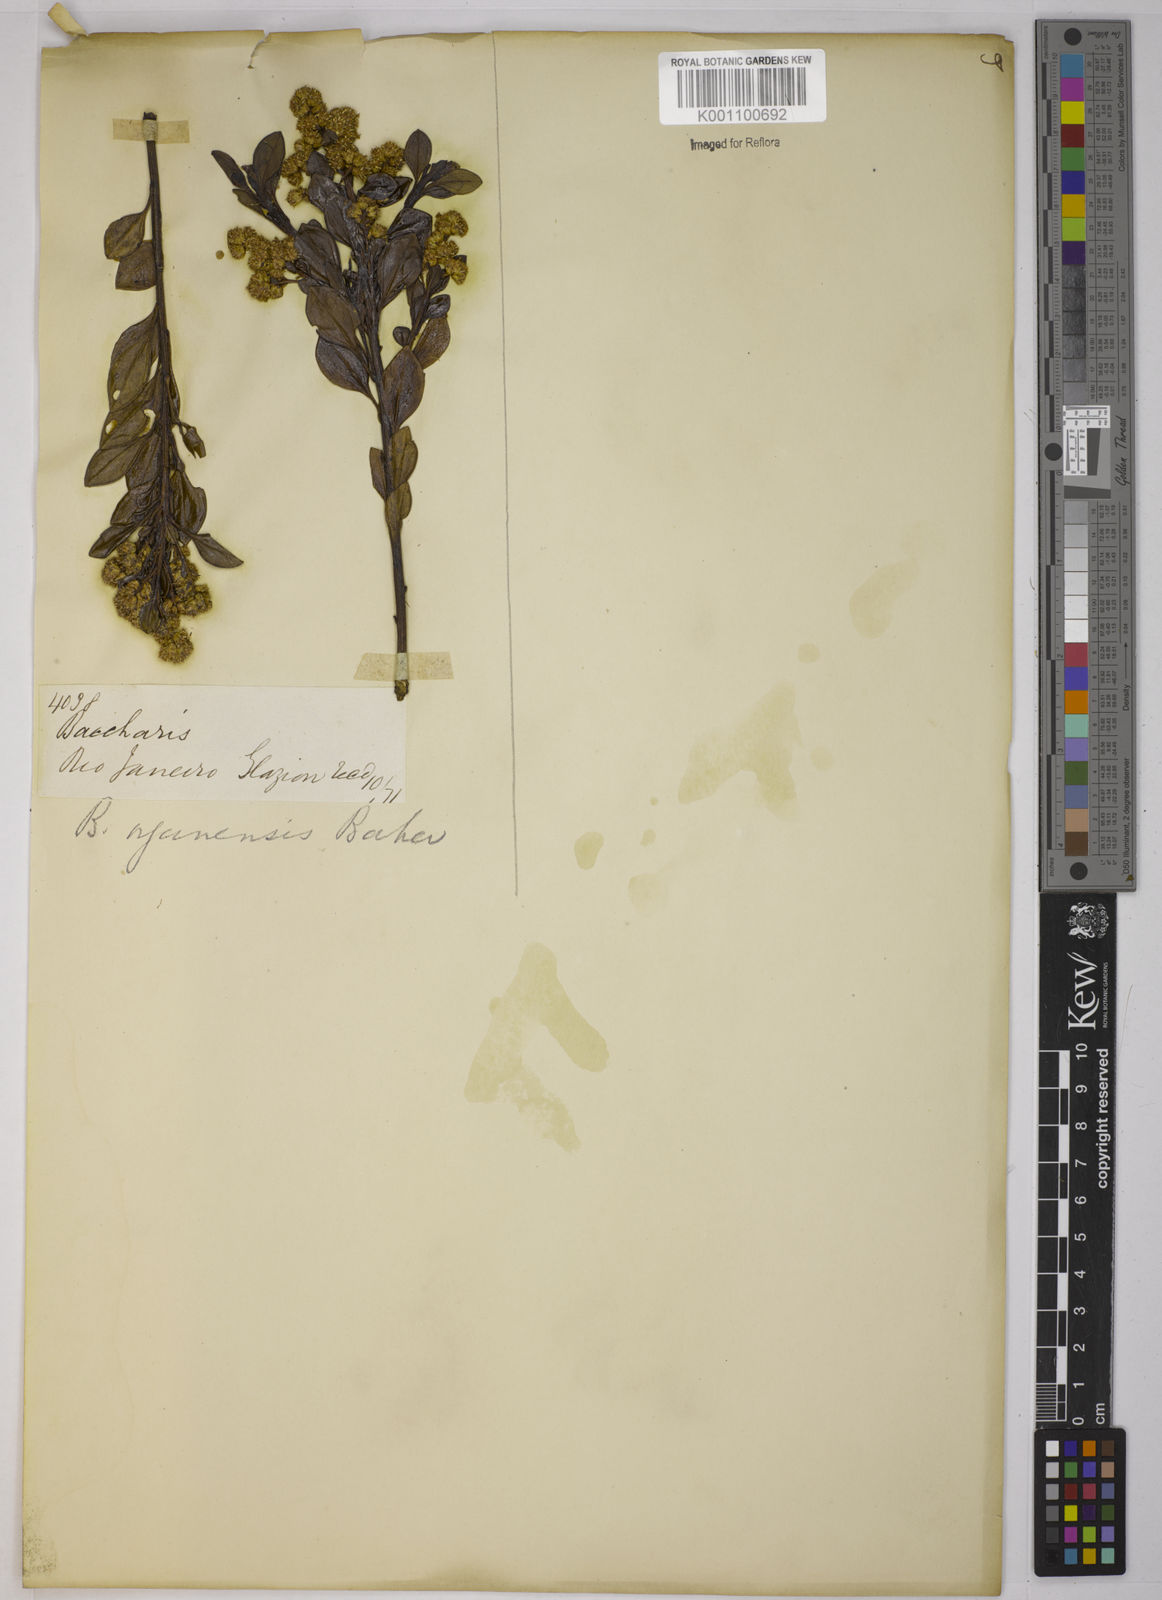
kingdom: Plantae
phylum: Tracheophyta
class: Magnoliopsida
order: Asterales
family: Asteraceae
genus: Archibaccharis
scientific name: Archibaccharis vulneraria
